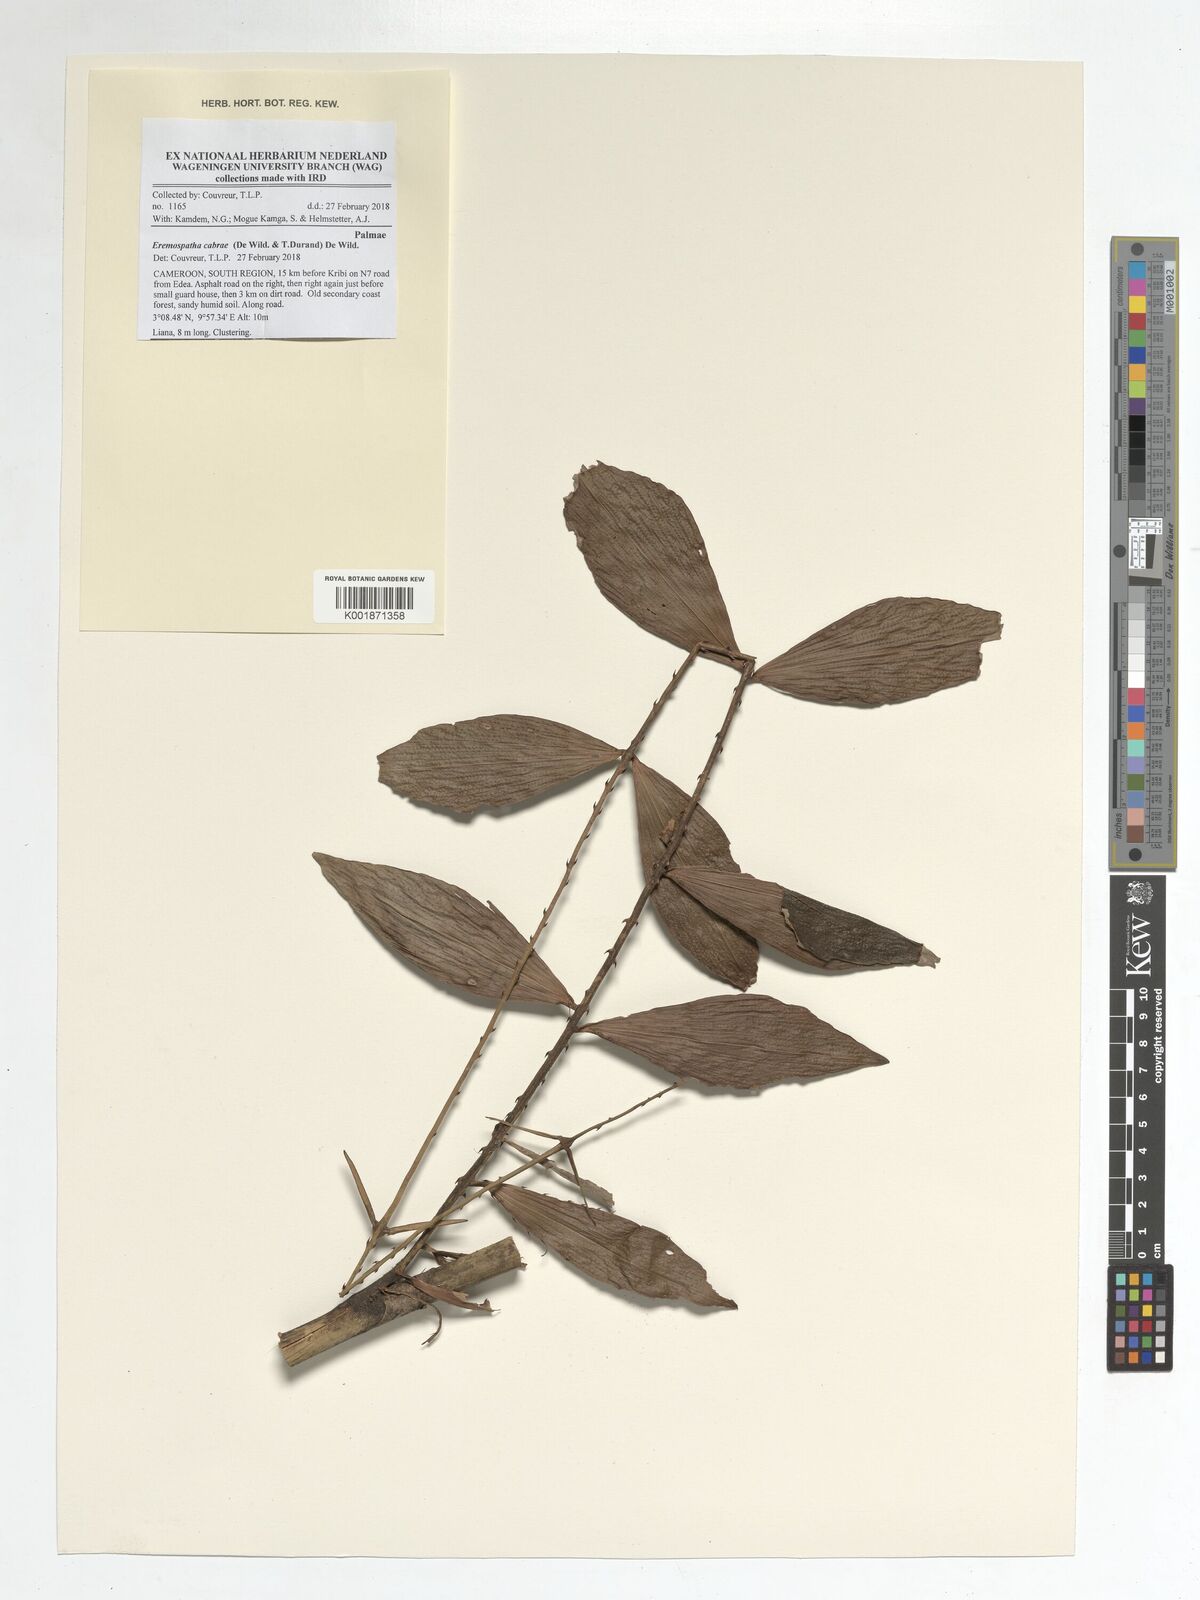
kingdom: Plantae
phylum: Tracheophyta
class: Liliopsida
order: Arecales
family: Arecaceae
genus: Eremospatha
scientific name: Eremospatha cabrae
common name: Rattan
